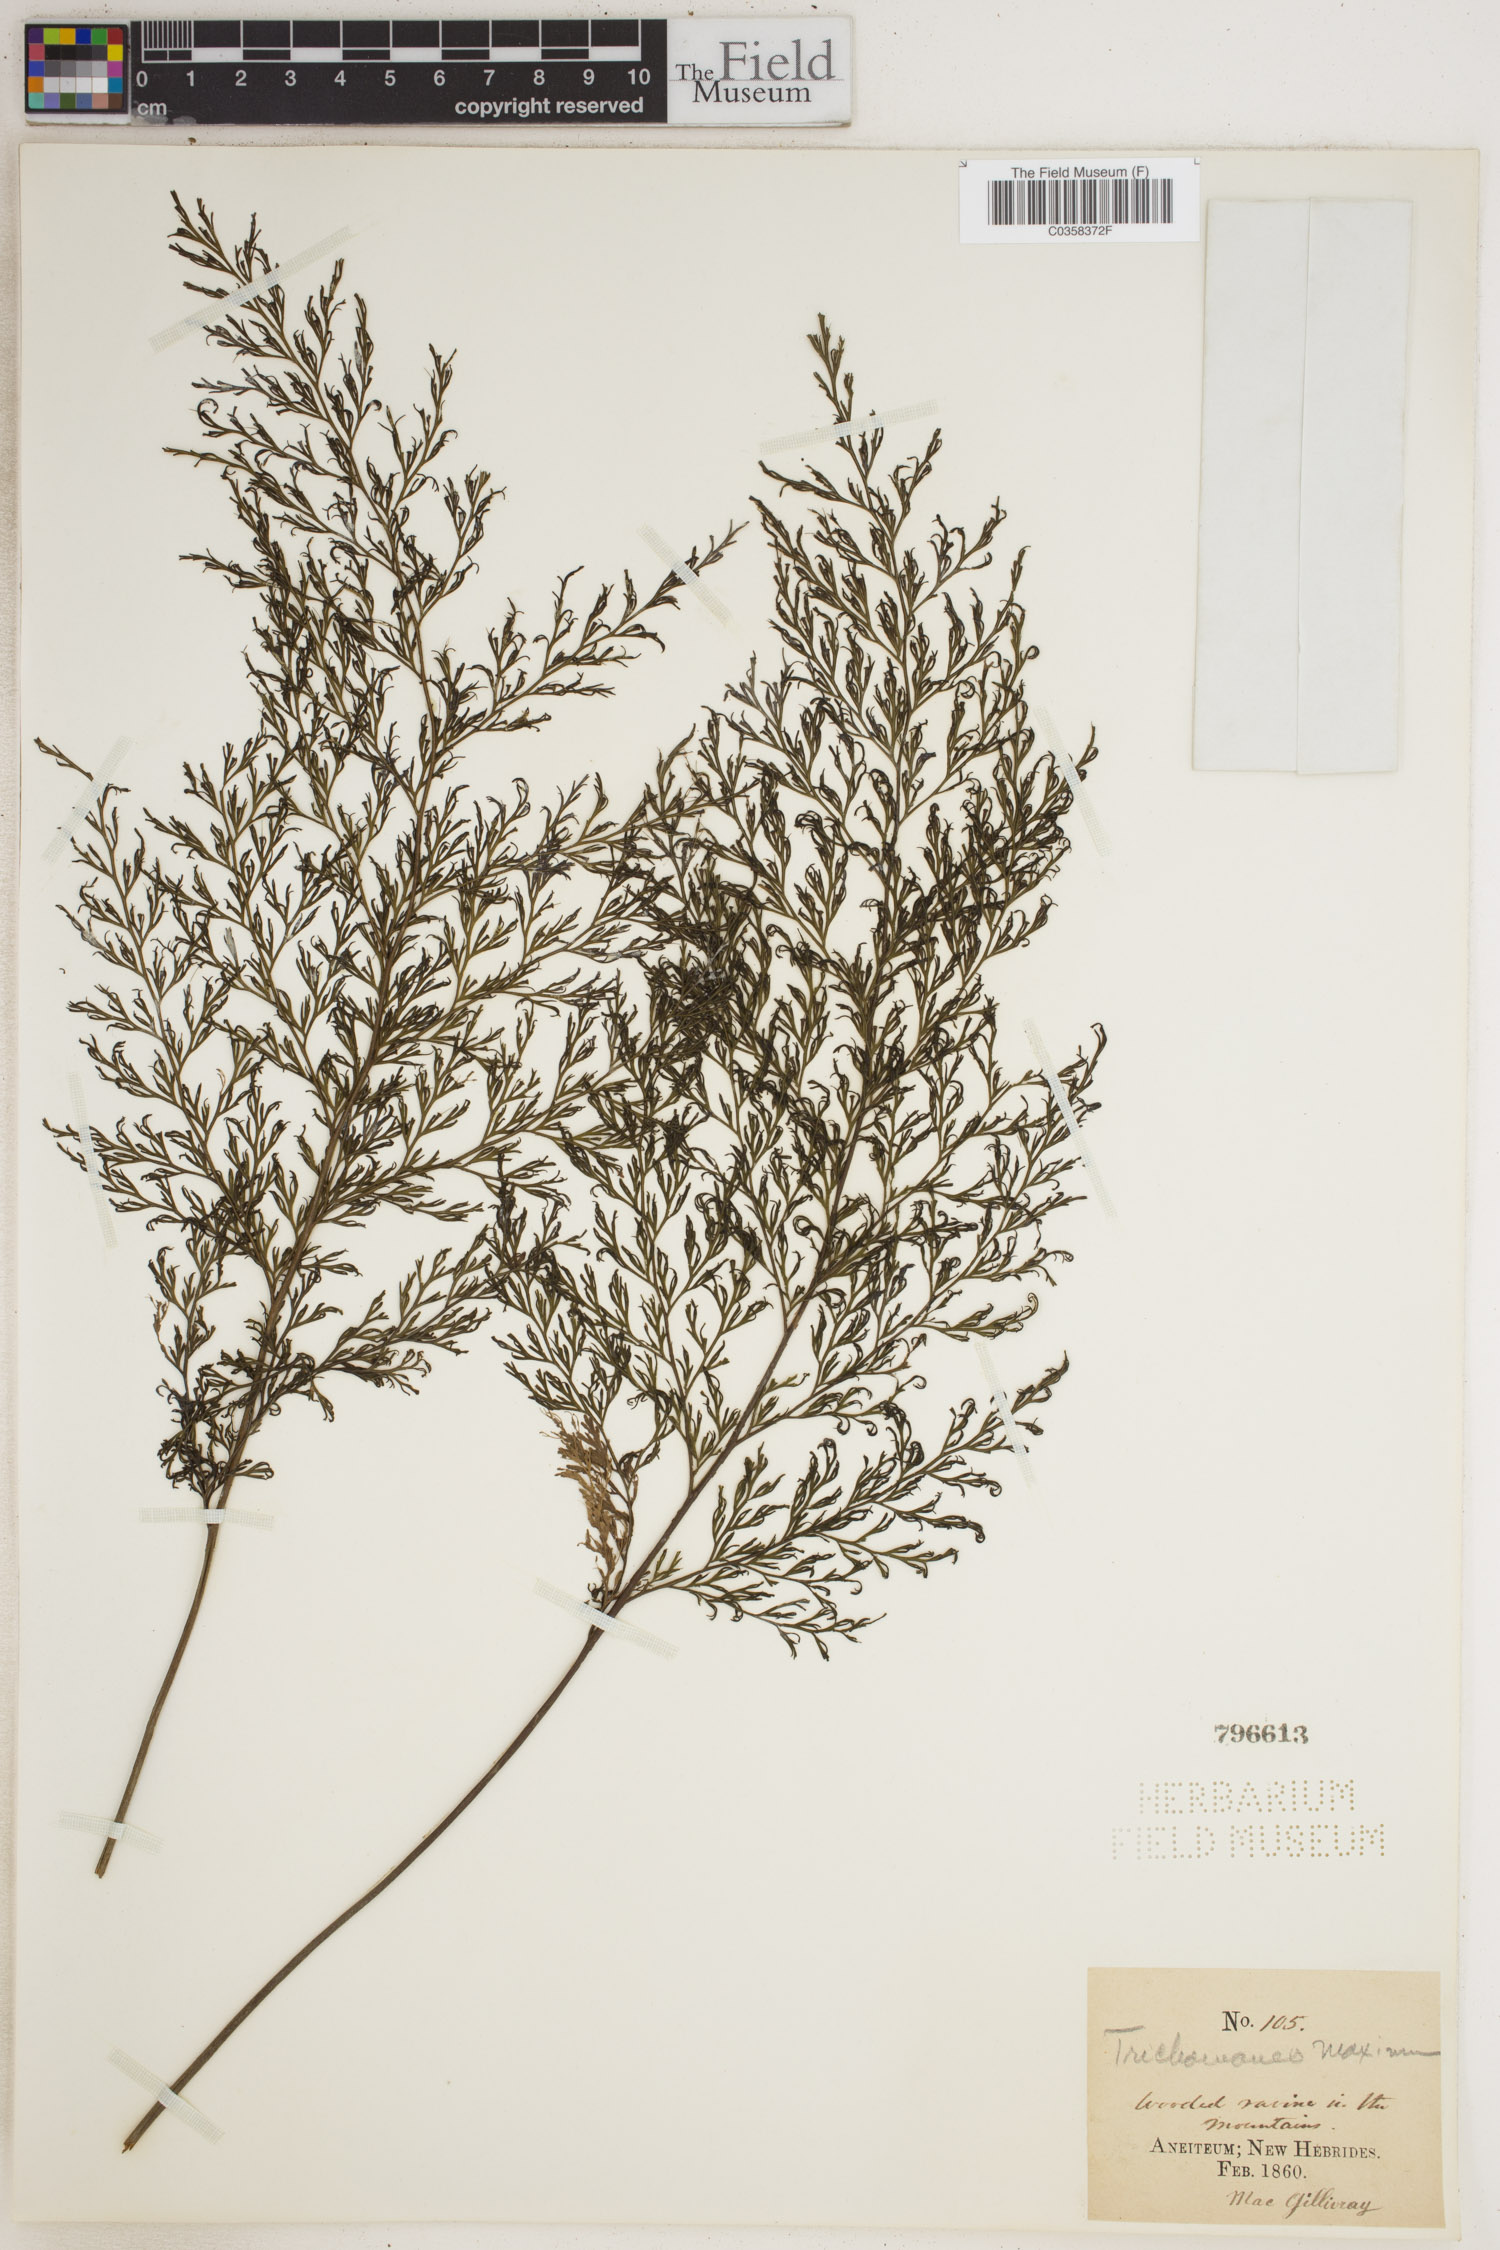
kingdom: Plantae
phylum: Tracheophyta
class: Polypodiopsida
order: Hymenophyllales
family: Hymenophyllaceae
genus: Vandenboschia
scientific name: Vandenboschia maxima
